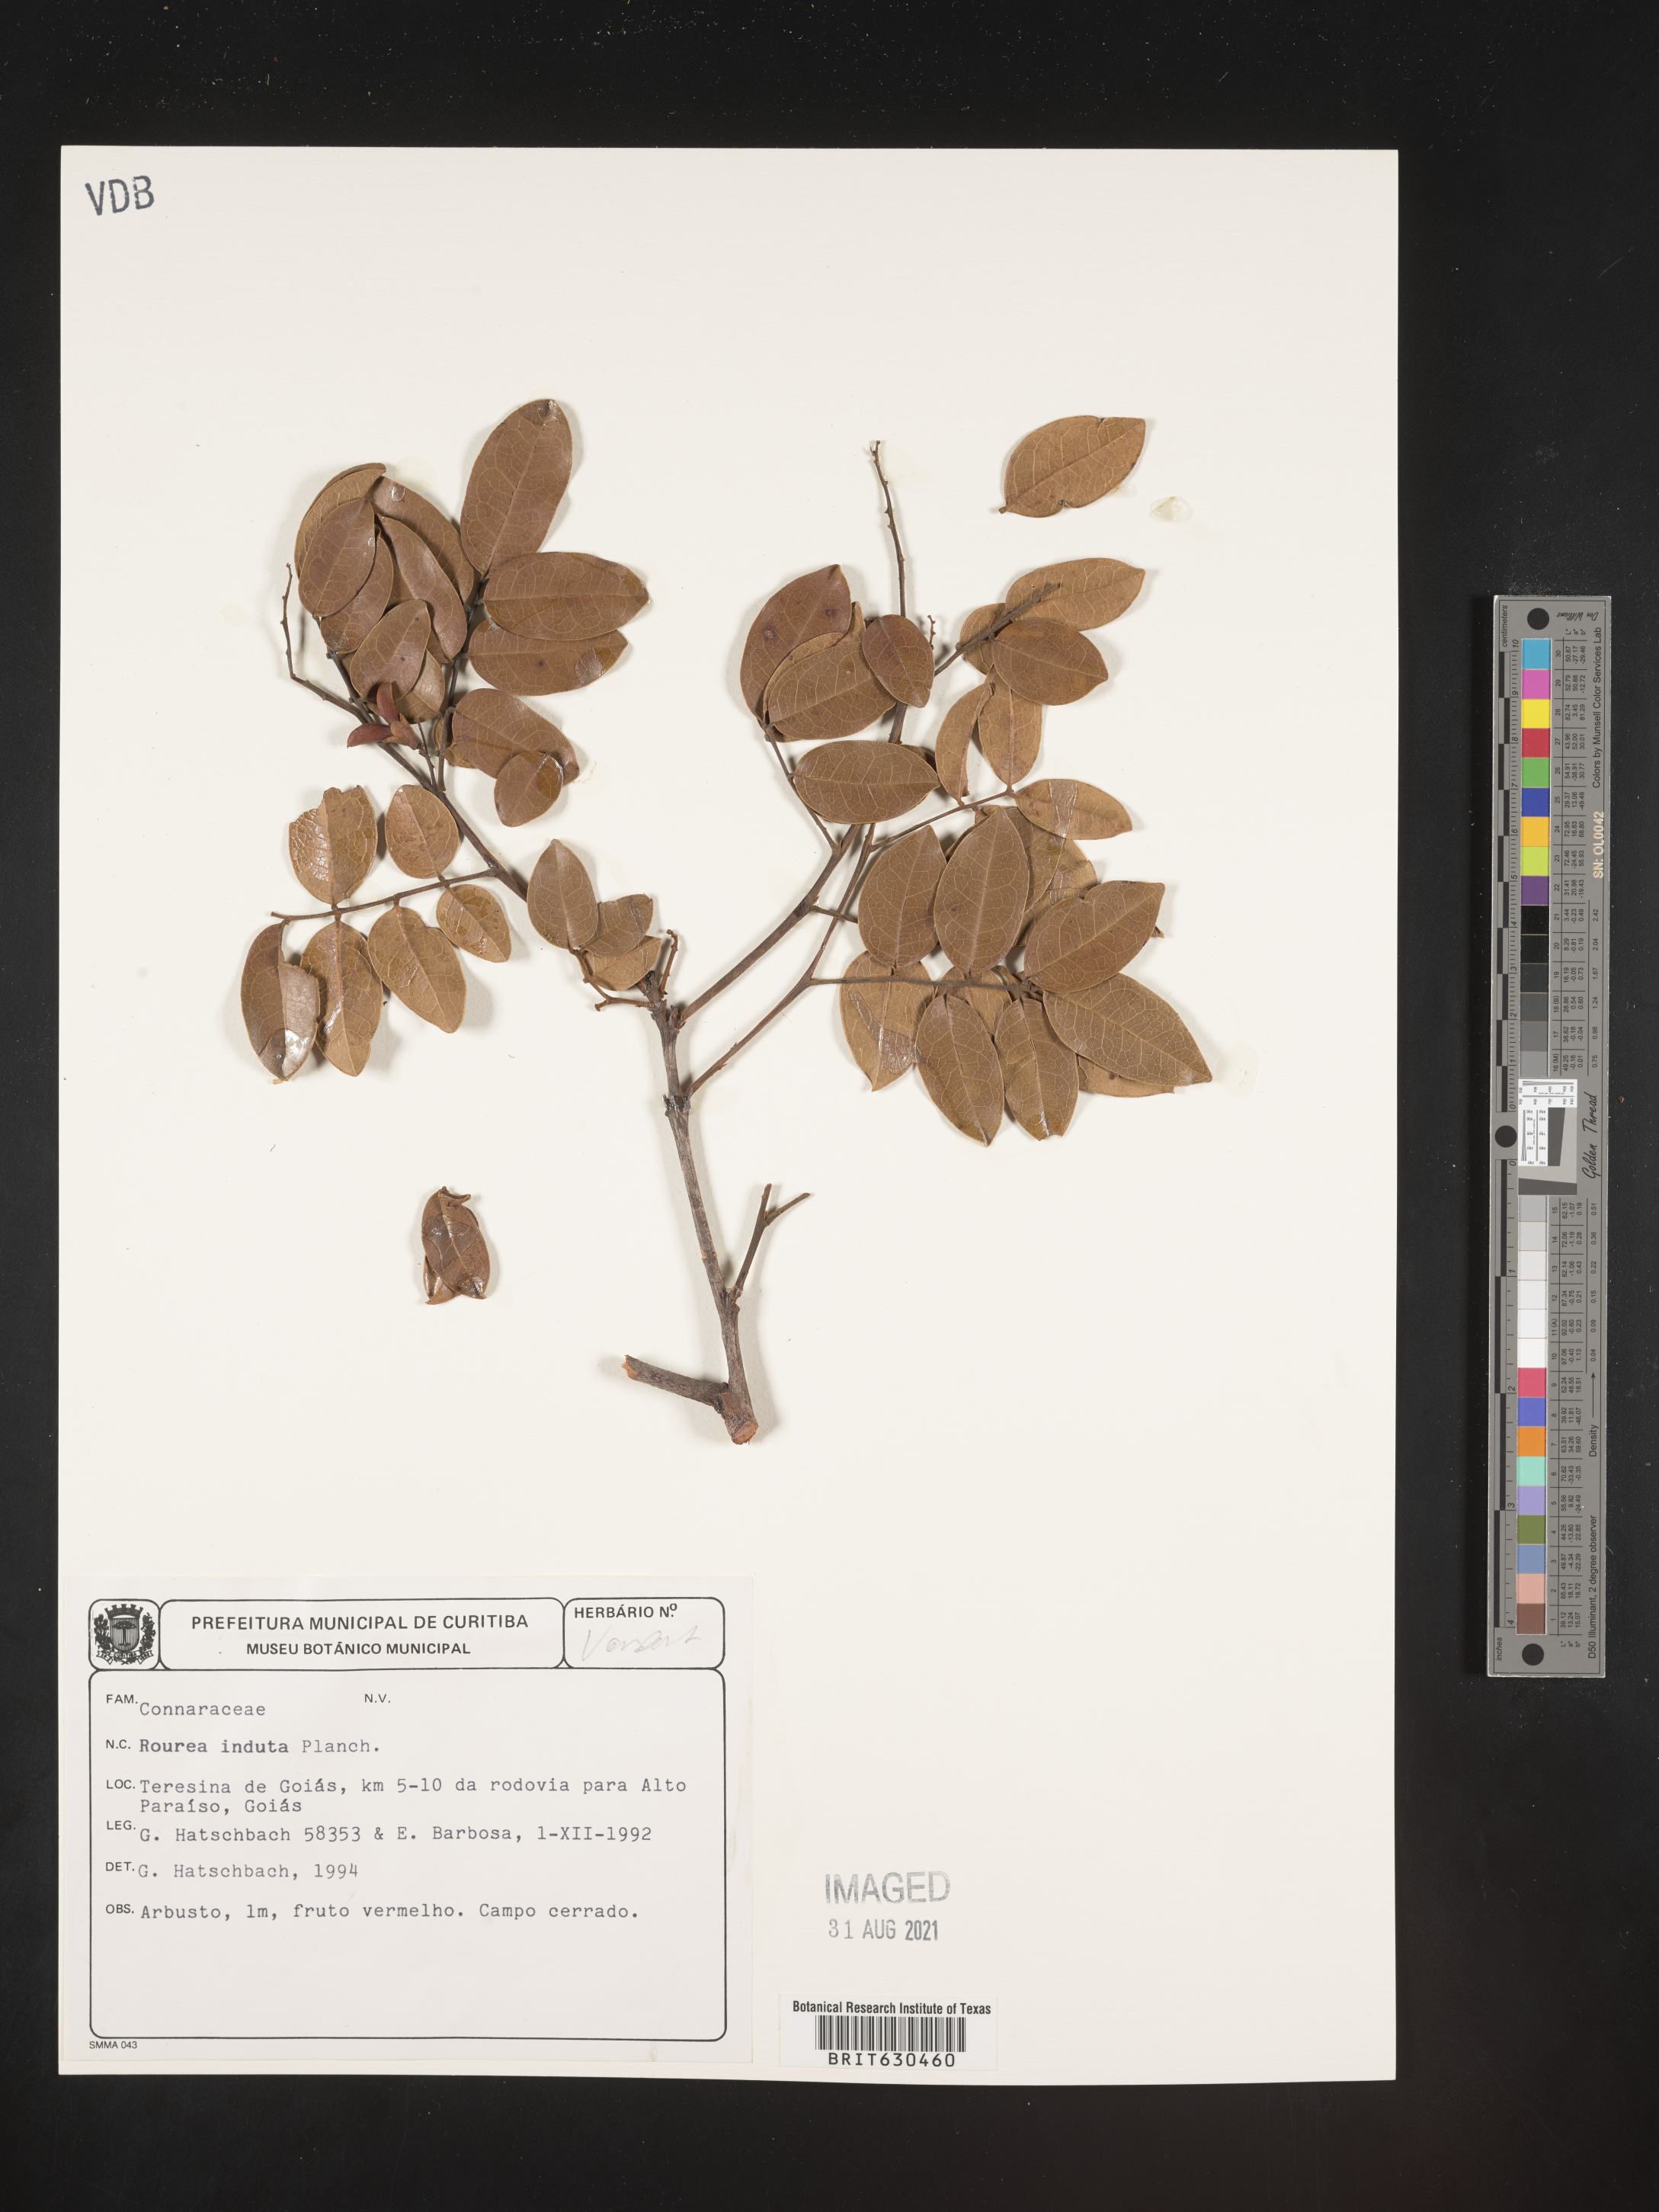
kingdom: Plantae
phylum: Tracheophyta
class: Magnoliopsida
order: Oxalidales
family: Connaraceae
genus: Rourea
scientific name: Rourea induta
